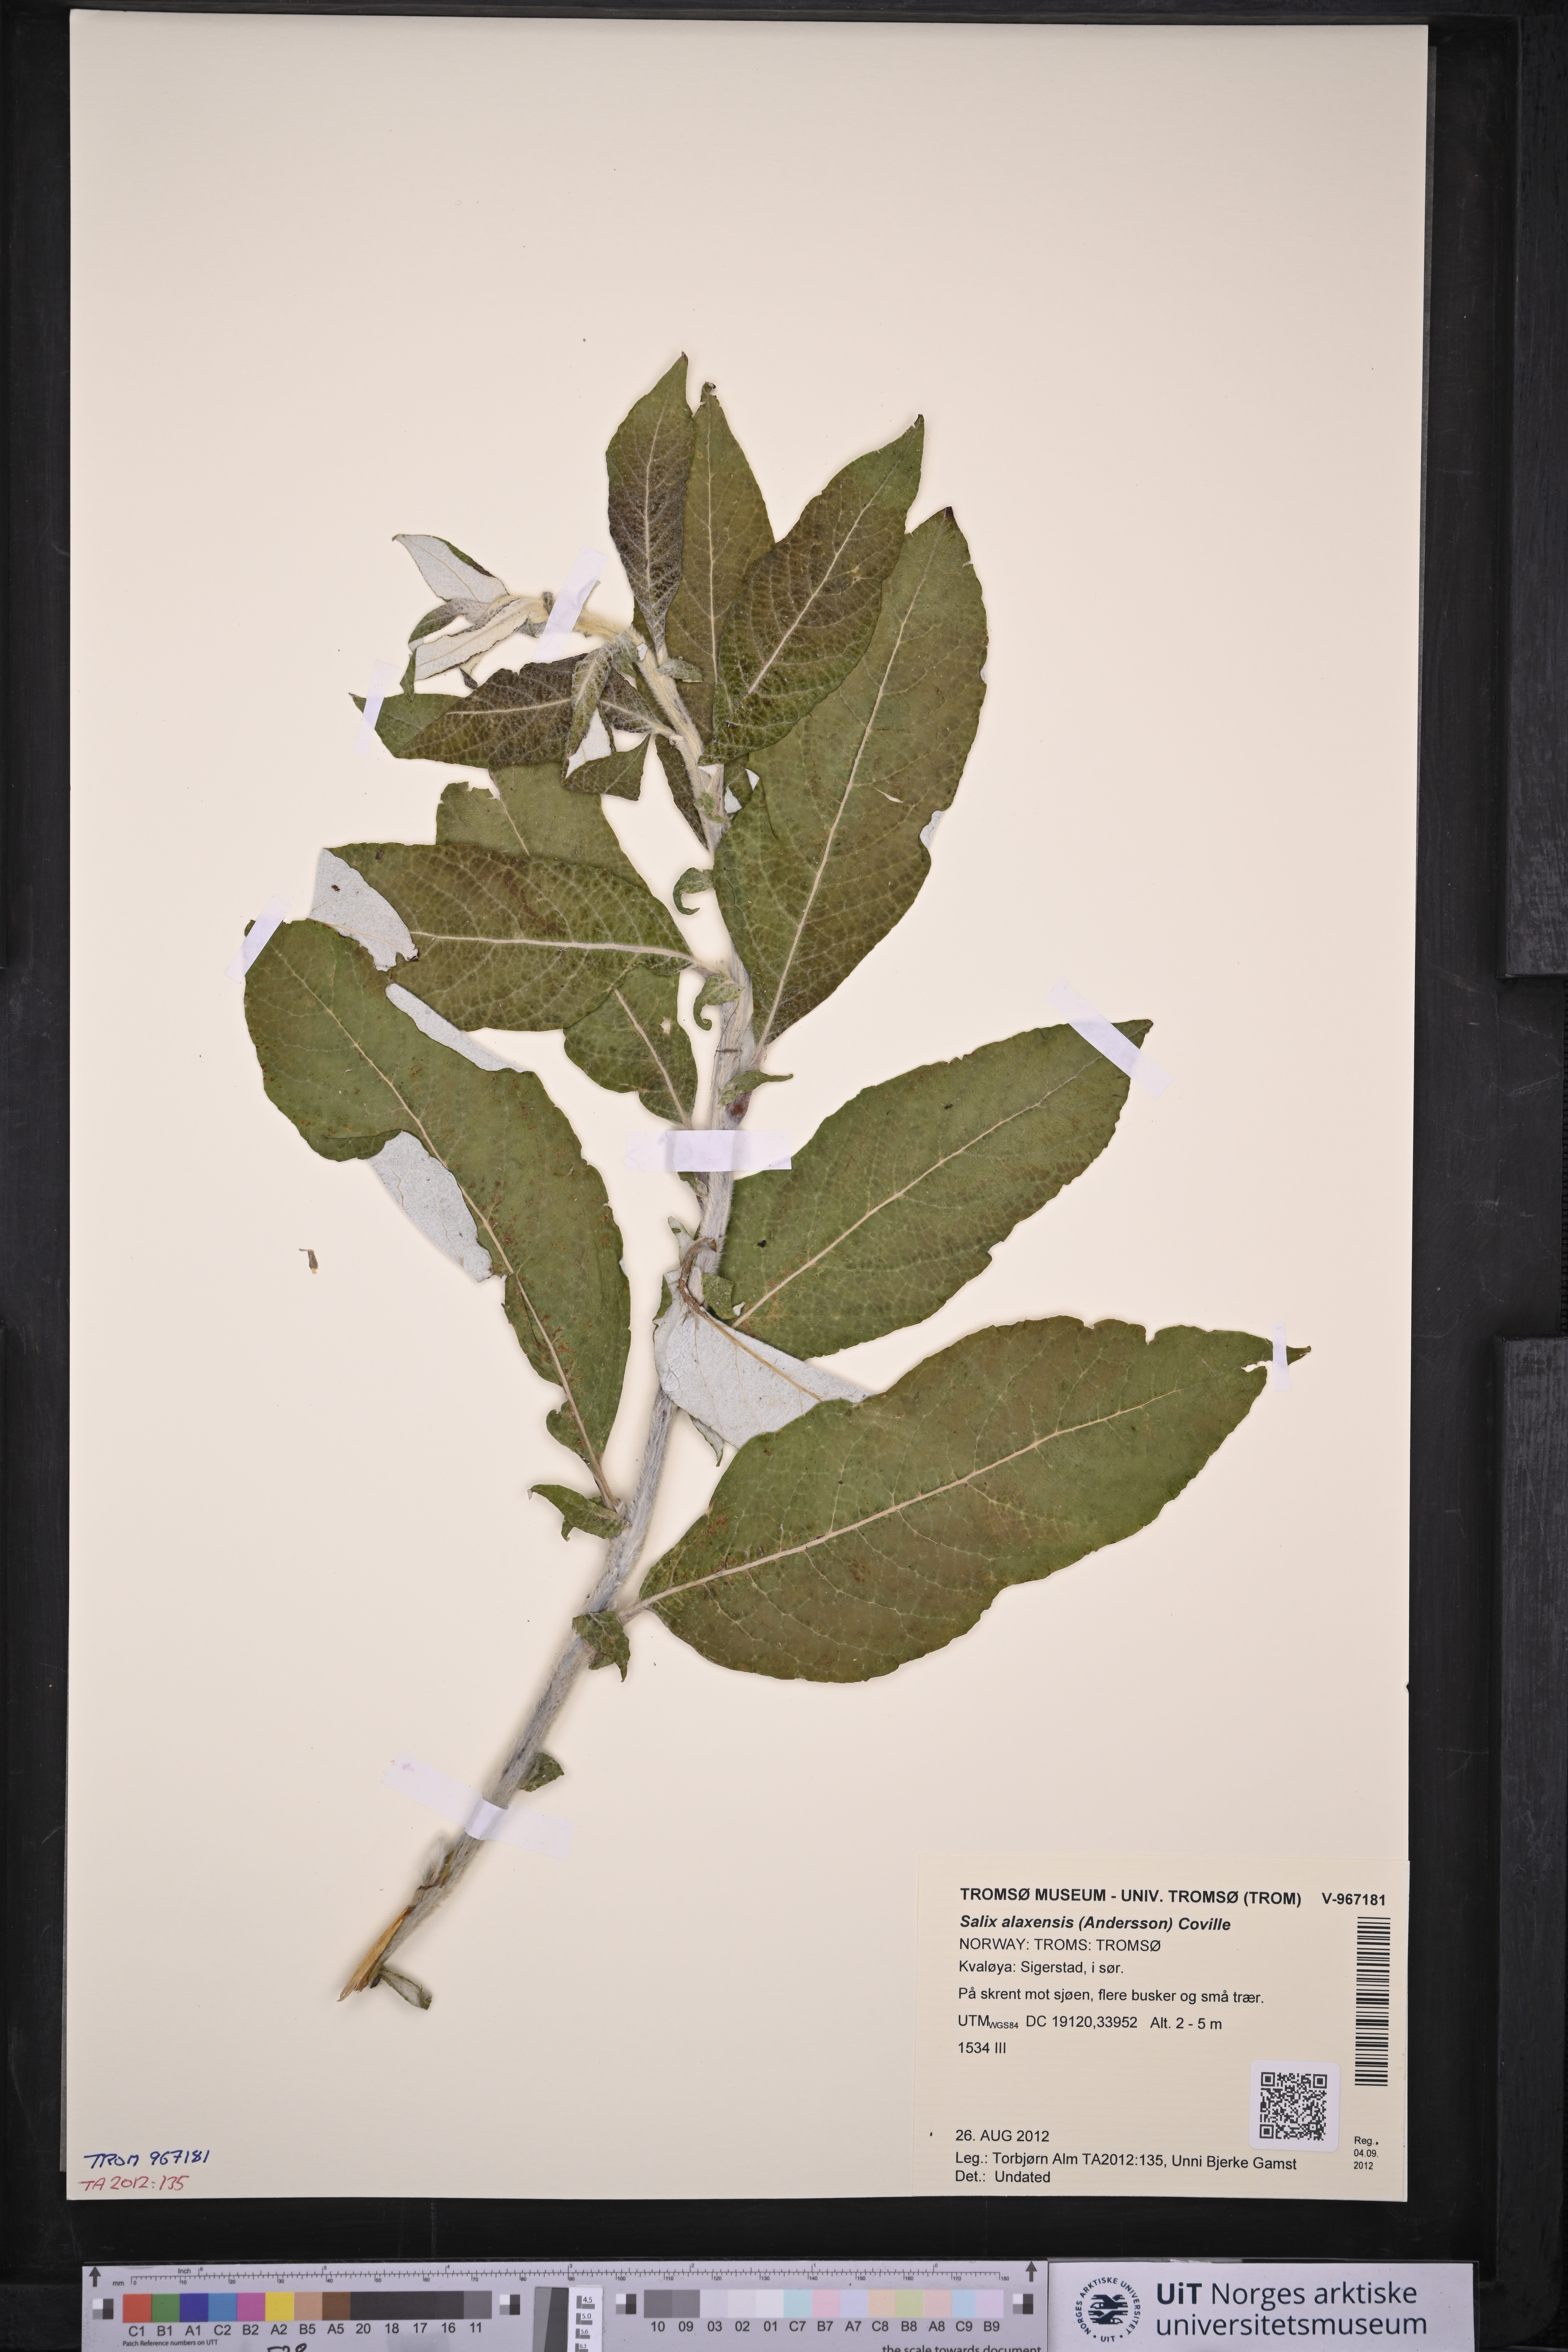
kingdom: Plantae
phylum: Tracheophyta
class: Magnoliopsida
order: Malpighiales
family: Salicaceae
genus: Salix
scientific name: Salix alaxensis
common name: Feltleaf willow
